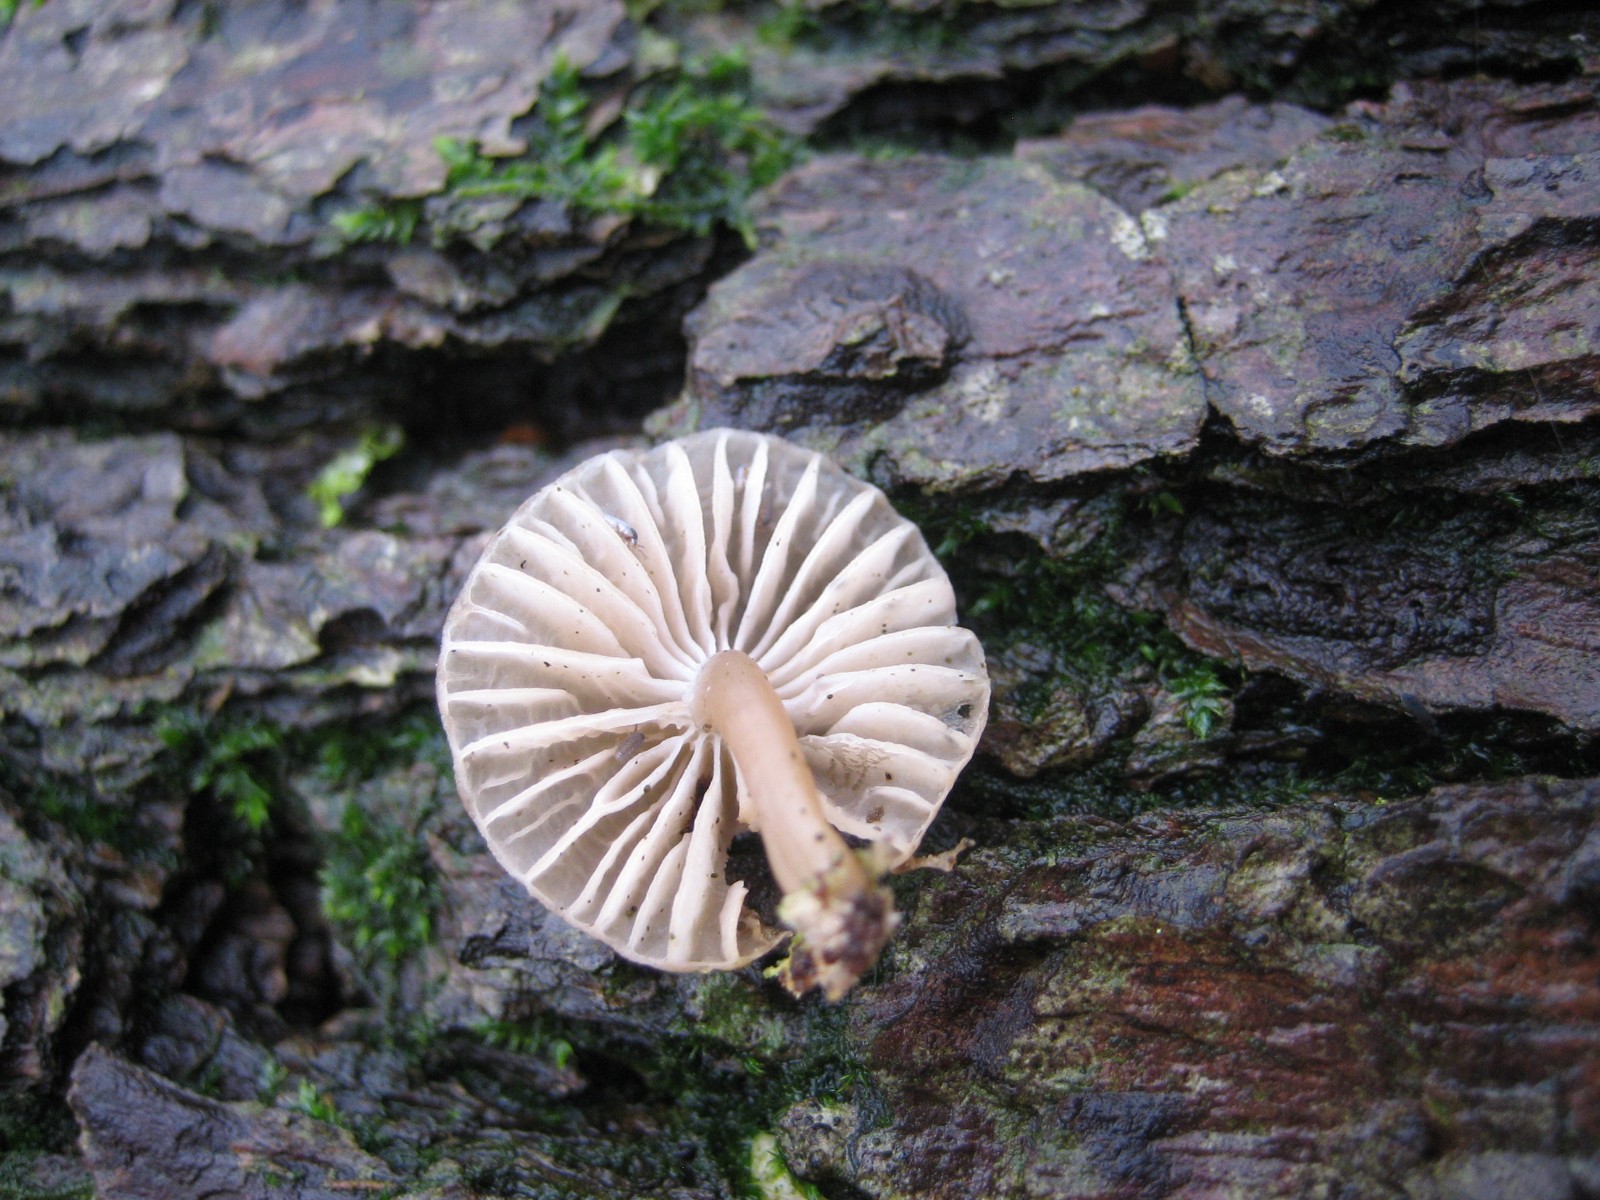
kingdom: Fungi
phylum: Basidiomycota
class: Agaricomycetes
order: Agaricales
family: Mycenaceae
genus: Mycena
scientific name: Mycena
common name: huesvamp
